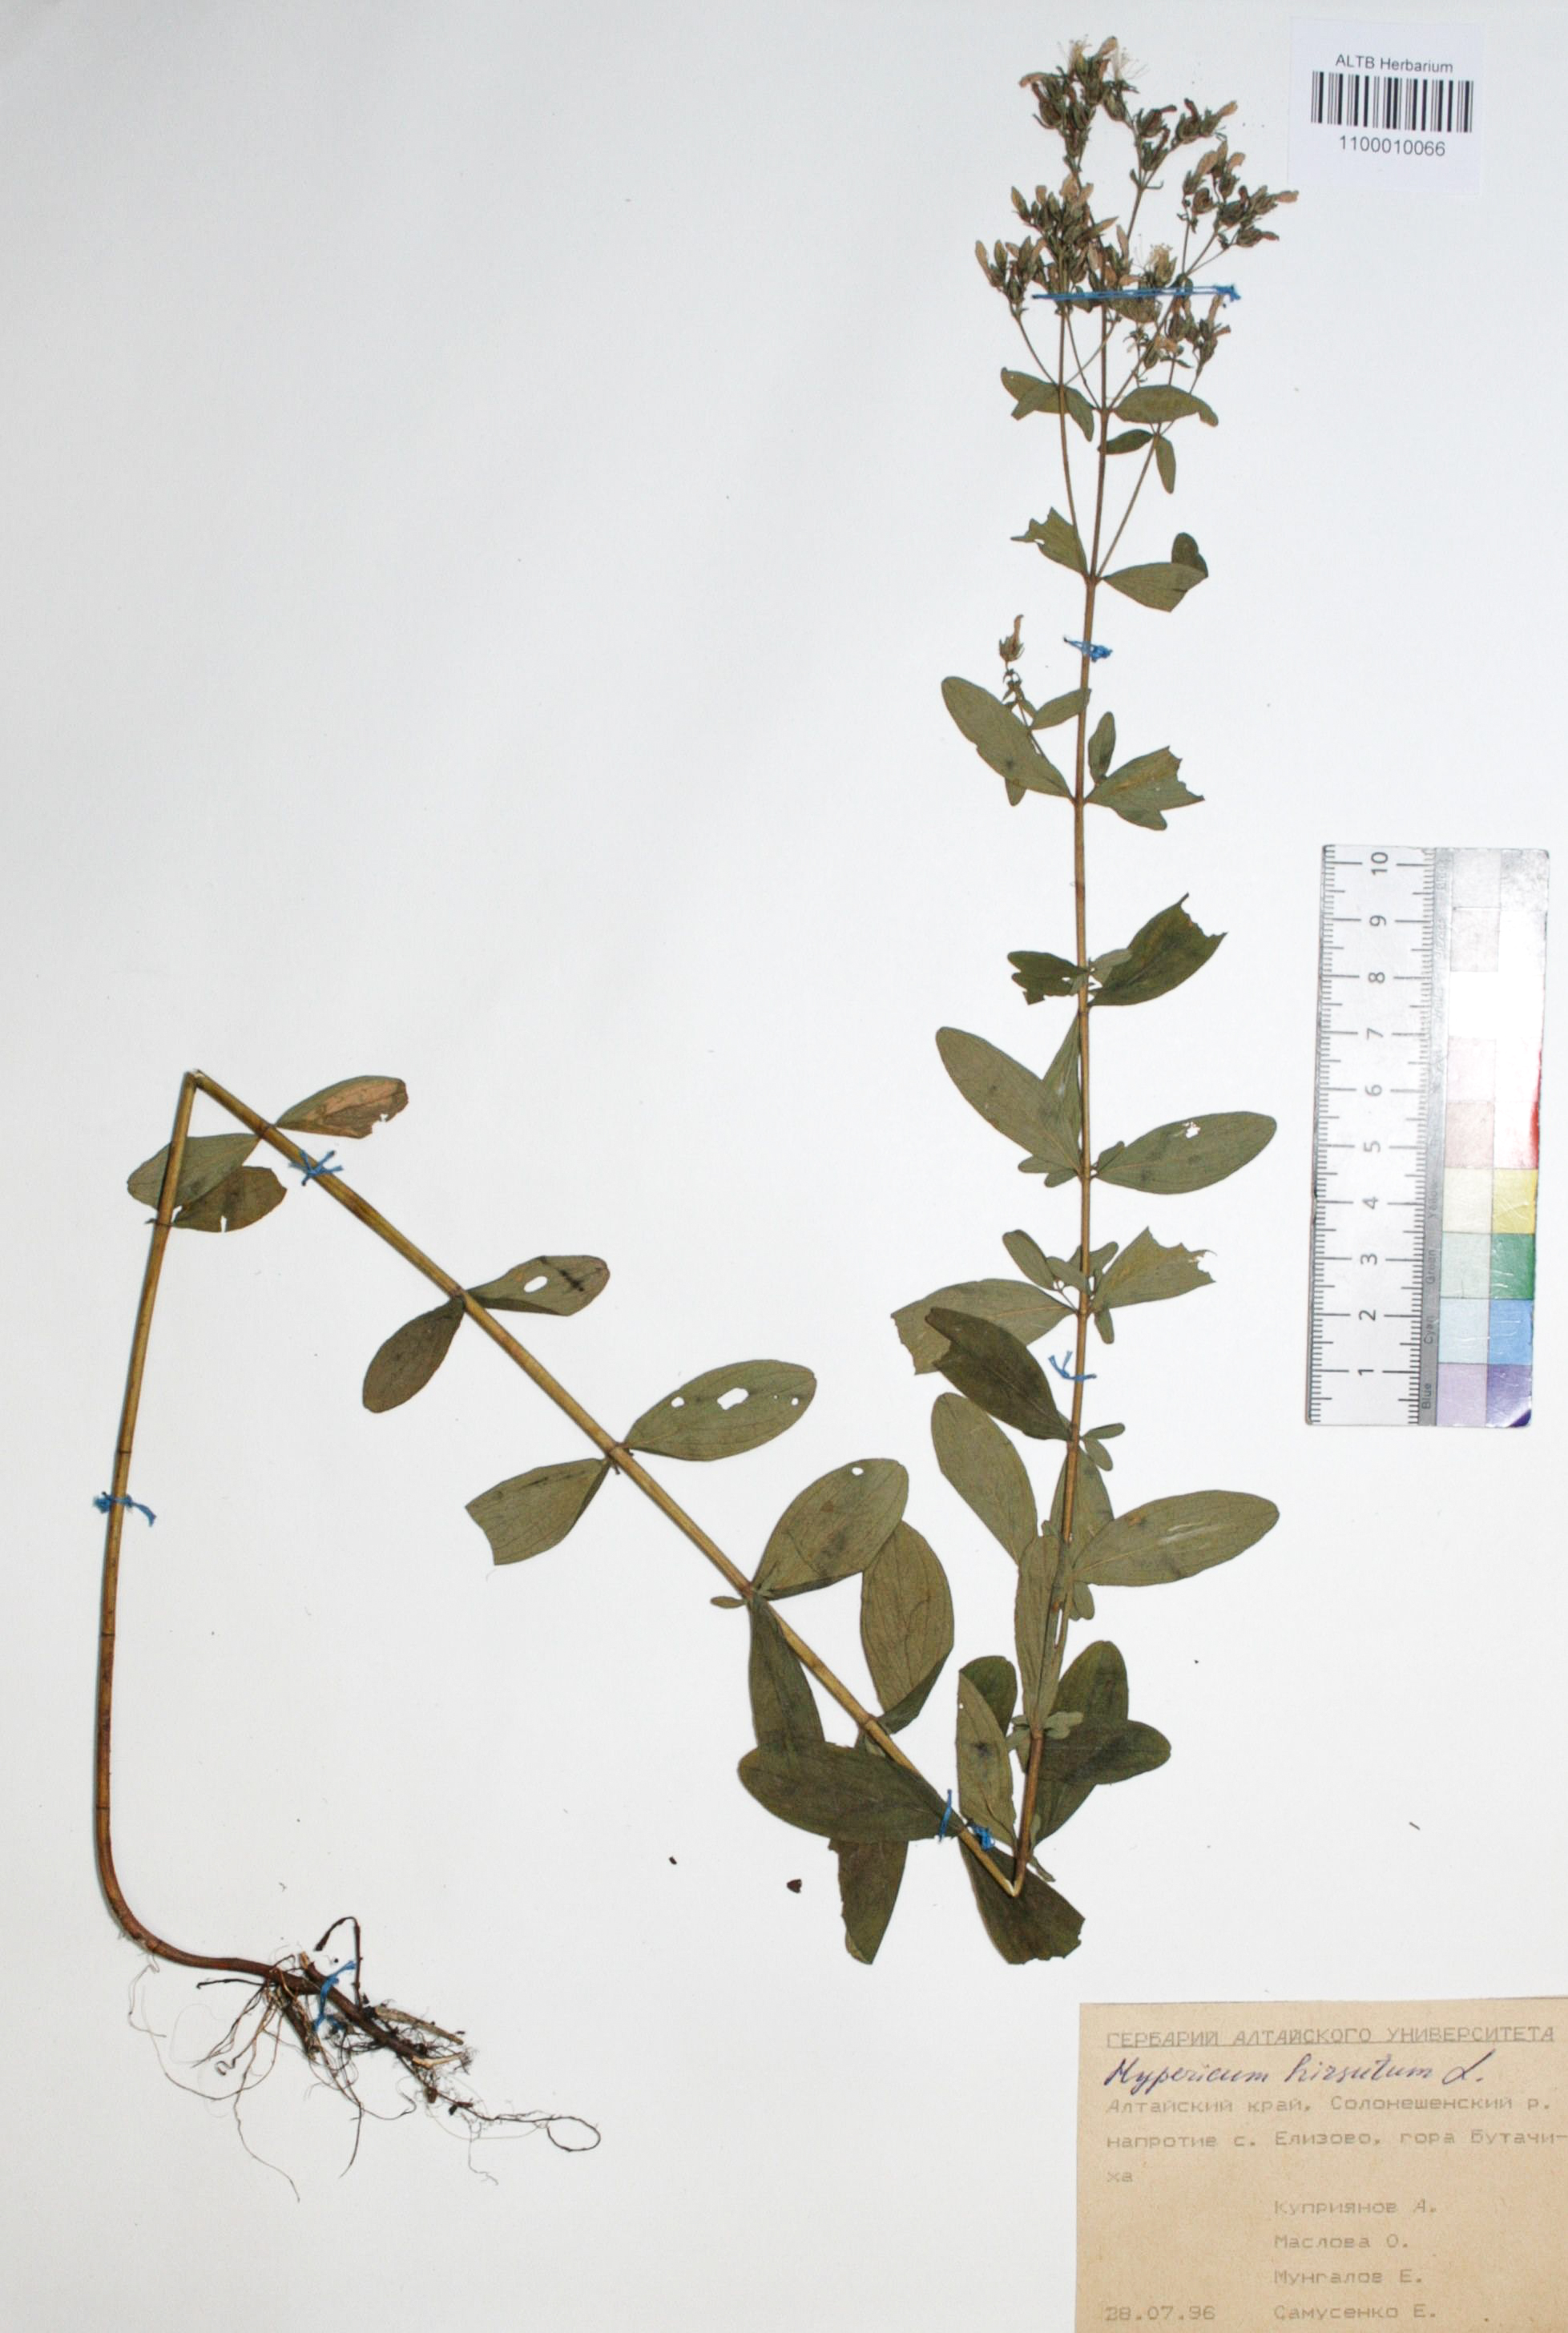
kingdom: Plantae
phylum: Tracheophyta
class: Magnoliopsida
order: Malpighiales
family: Hypericaceae
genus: Hypericum
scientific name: Hypericum hirsutum
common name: Hairy st. john's-wort
